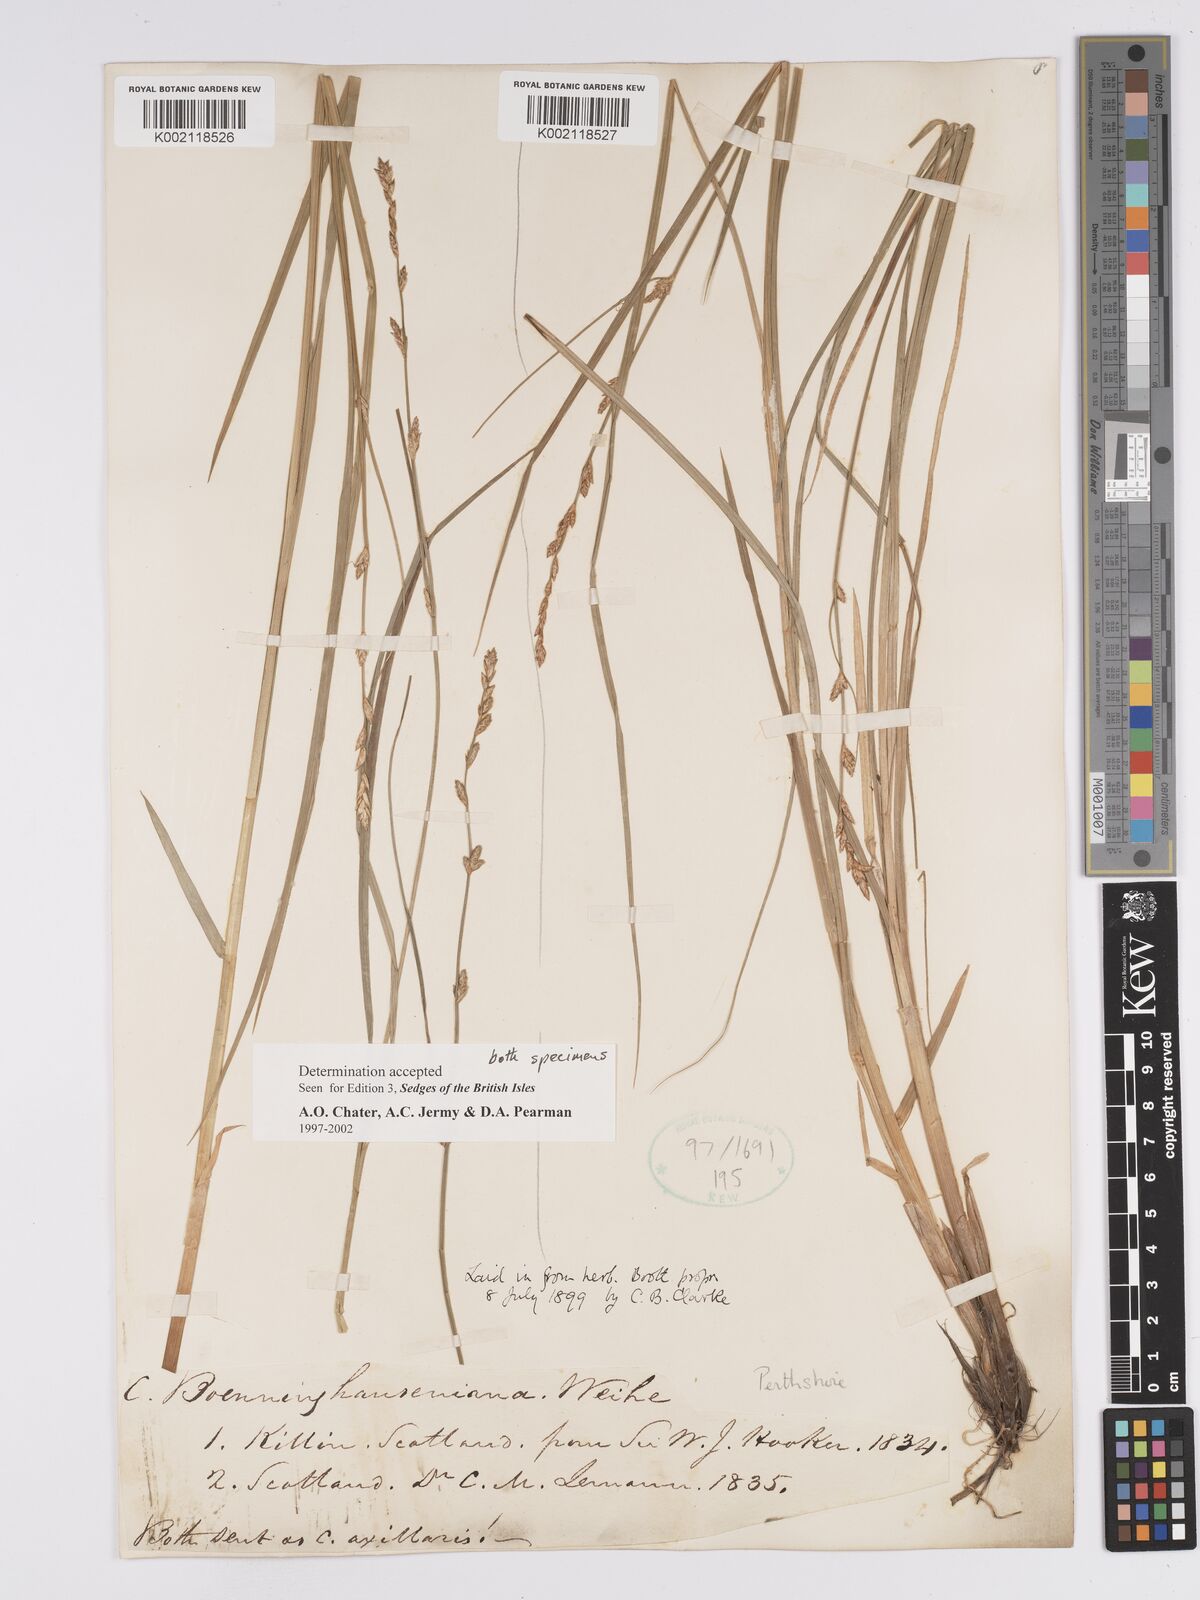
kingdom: Plantae
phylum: Tracheophyta
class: Liliopsida
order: Poales
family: Cyperaceae
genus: Carex
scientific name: Carex boenninghausiana
